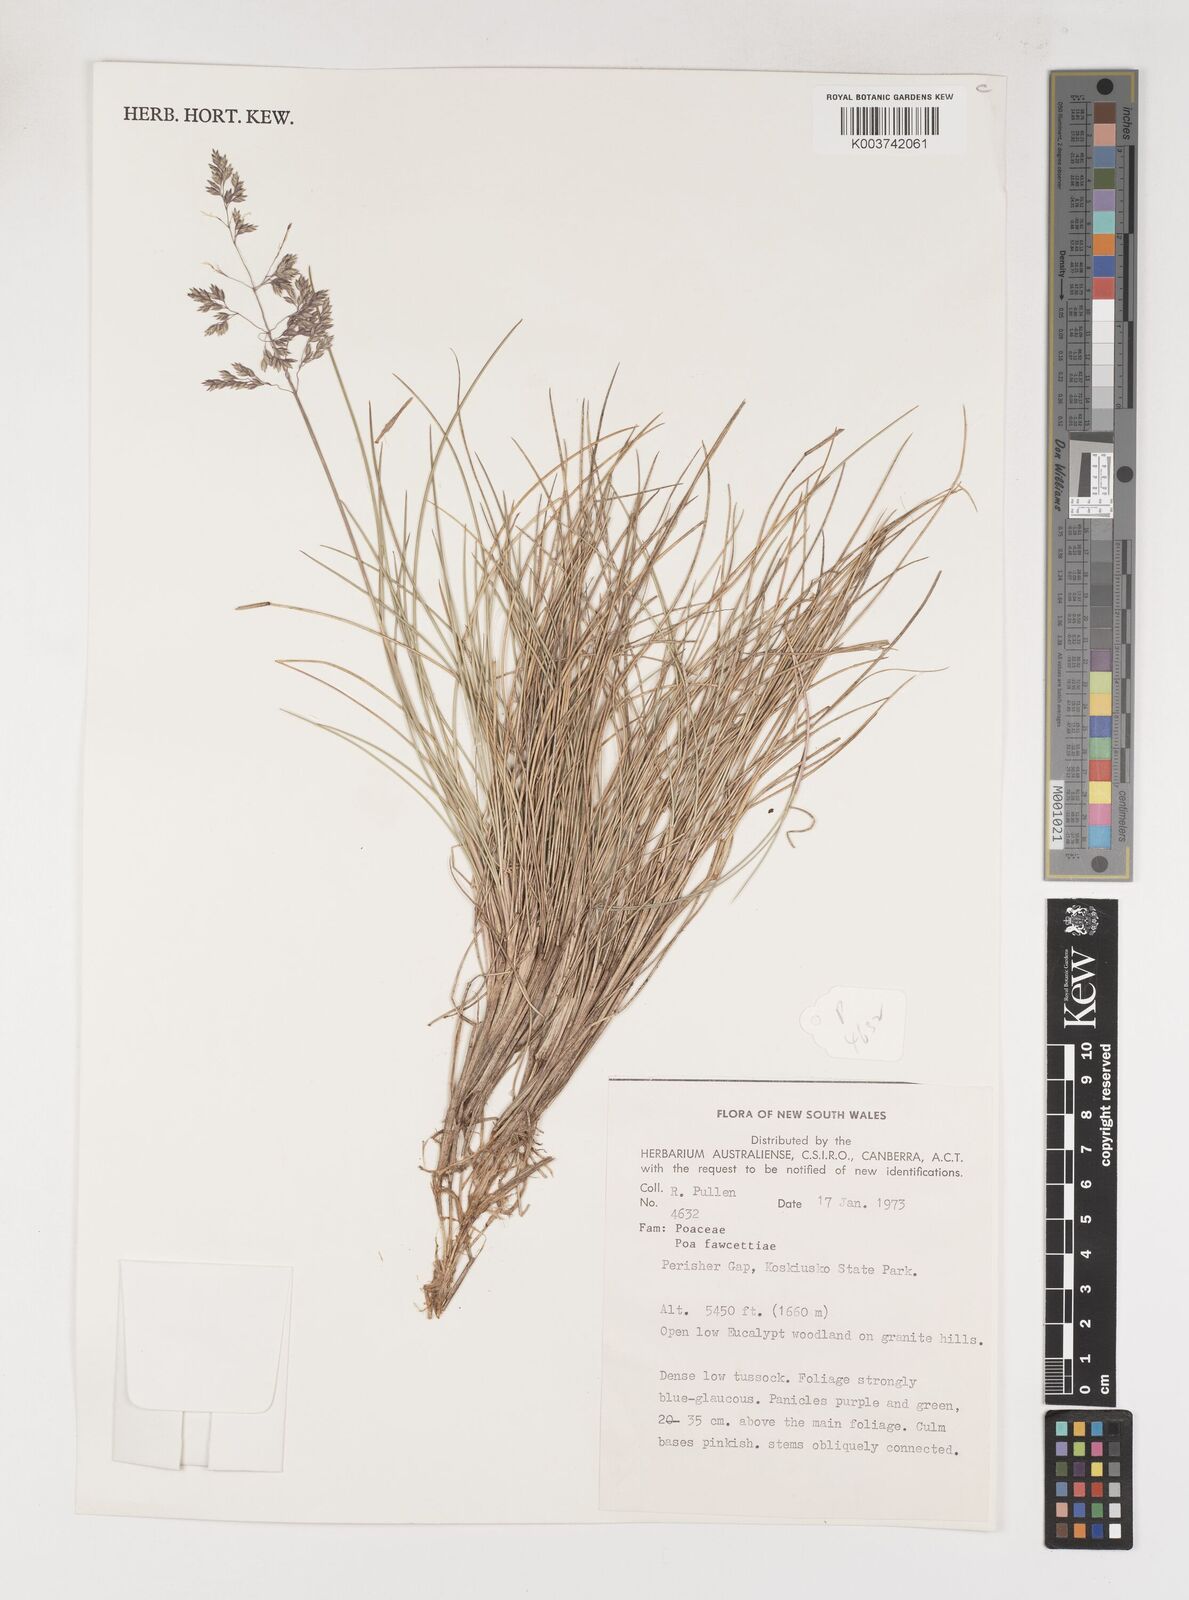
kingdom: Plantae
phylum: Tracheophyta
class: Liliopsida
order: Poales
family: Poaceae
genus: Poa
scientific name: Poa fawcettiae
